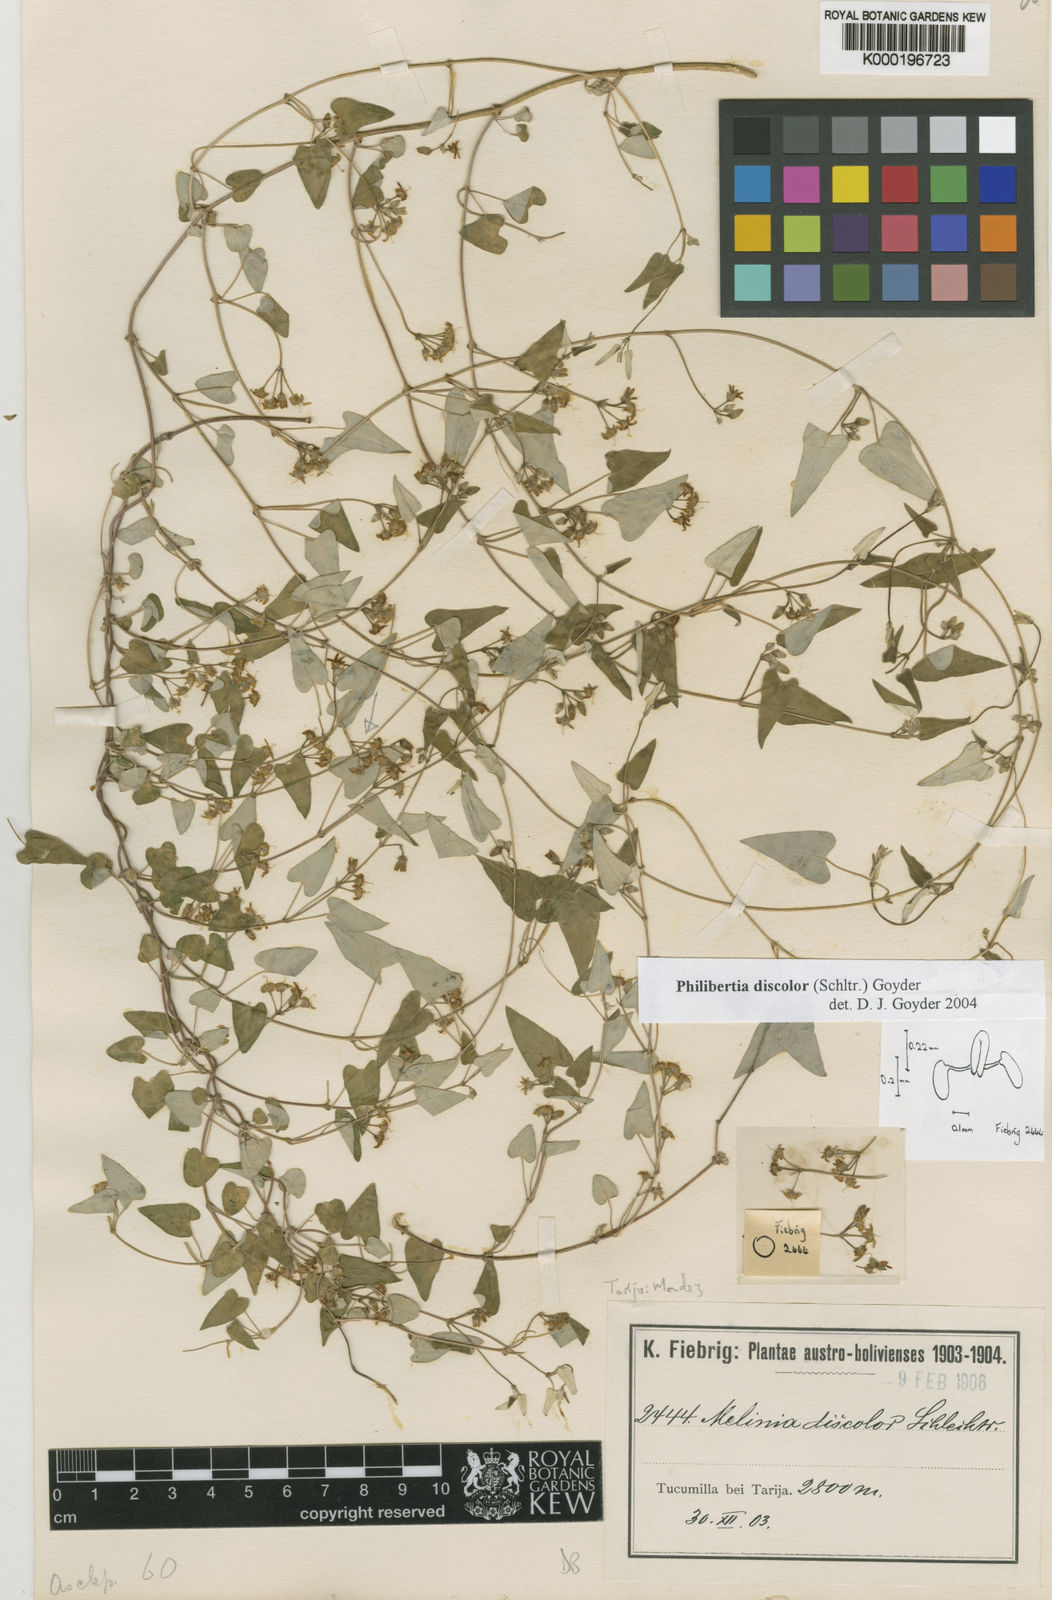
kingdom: Plantae
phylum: Tracheophyta
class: Magnoliopsida
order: Gentianales
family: Apocynaceae
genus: Philibertia
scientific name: Philibertia discolor
